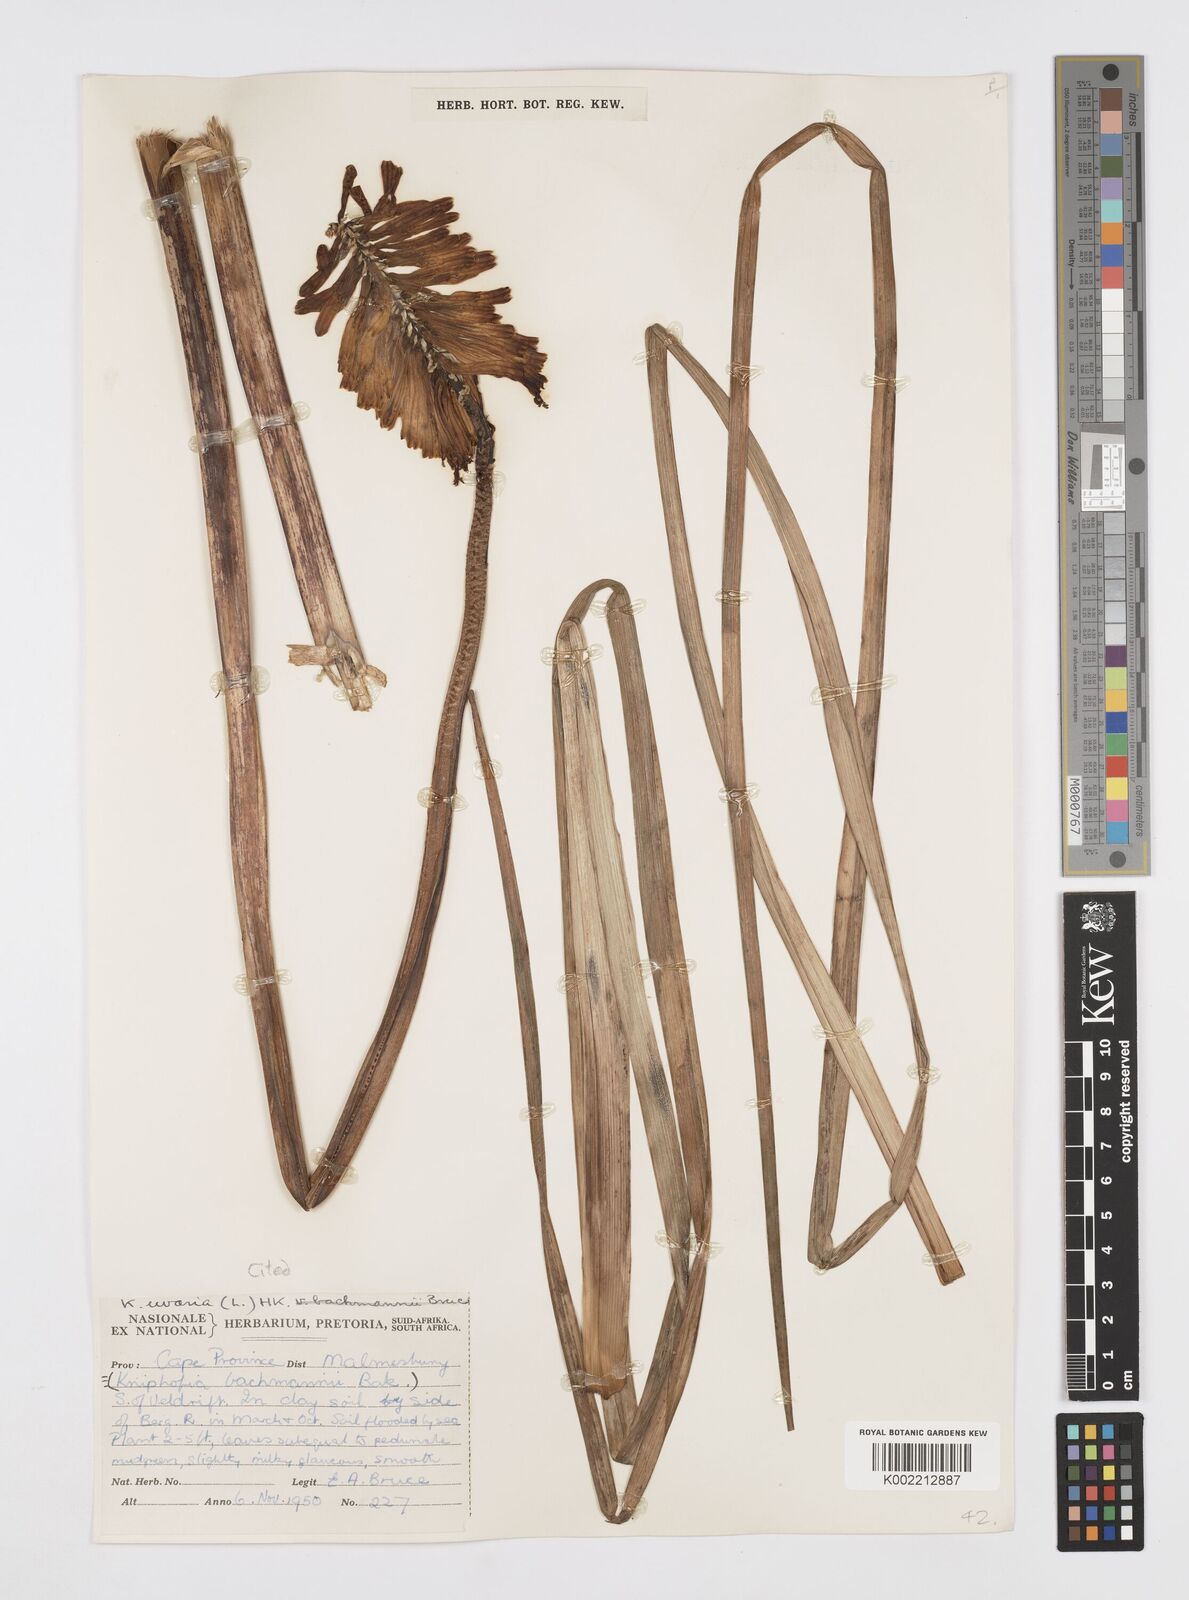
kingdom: Plantae
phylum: Tracheophyta
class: Liliopsida
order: Asparagales
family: Asphodelaceae
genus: Kniphofia
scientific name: Kniphofia uvaria
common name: Red-hot-poker
